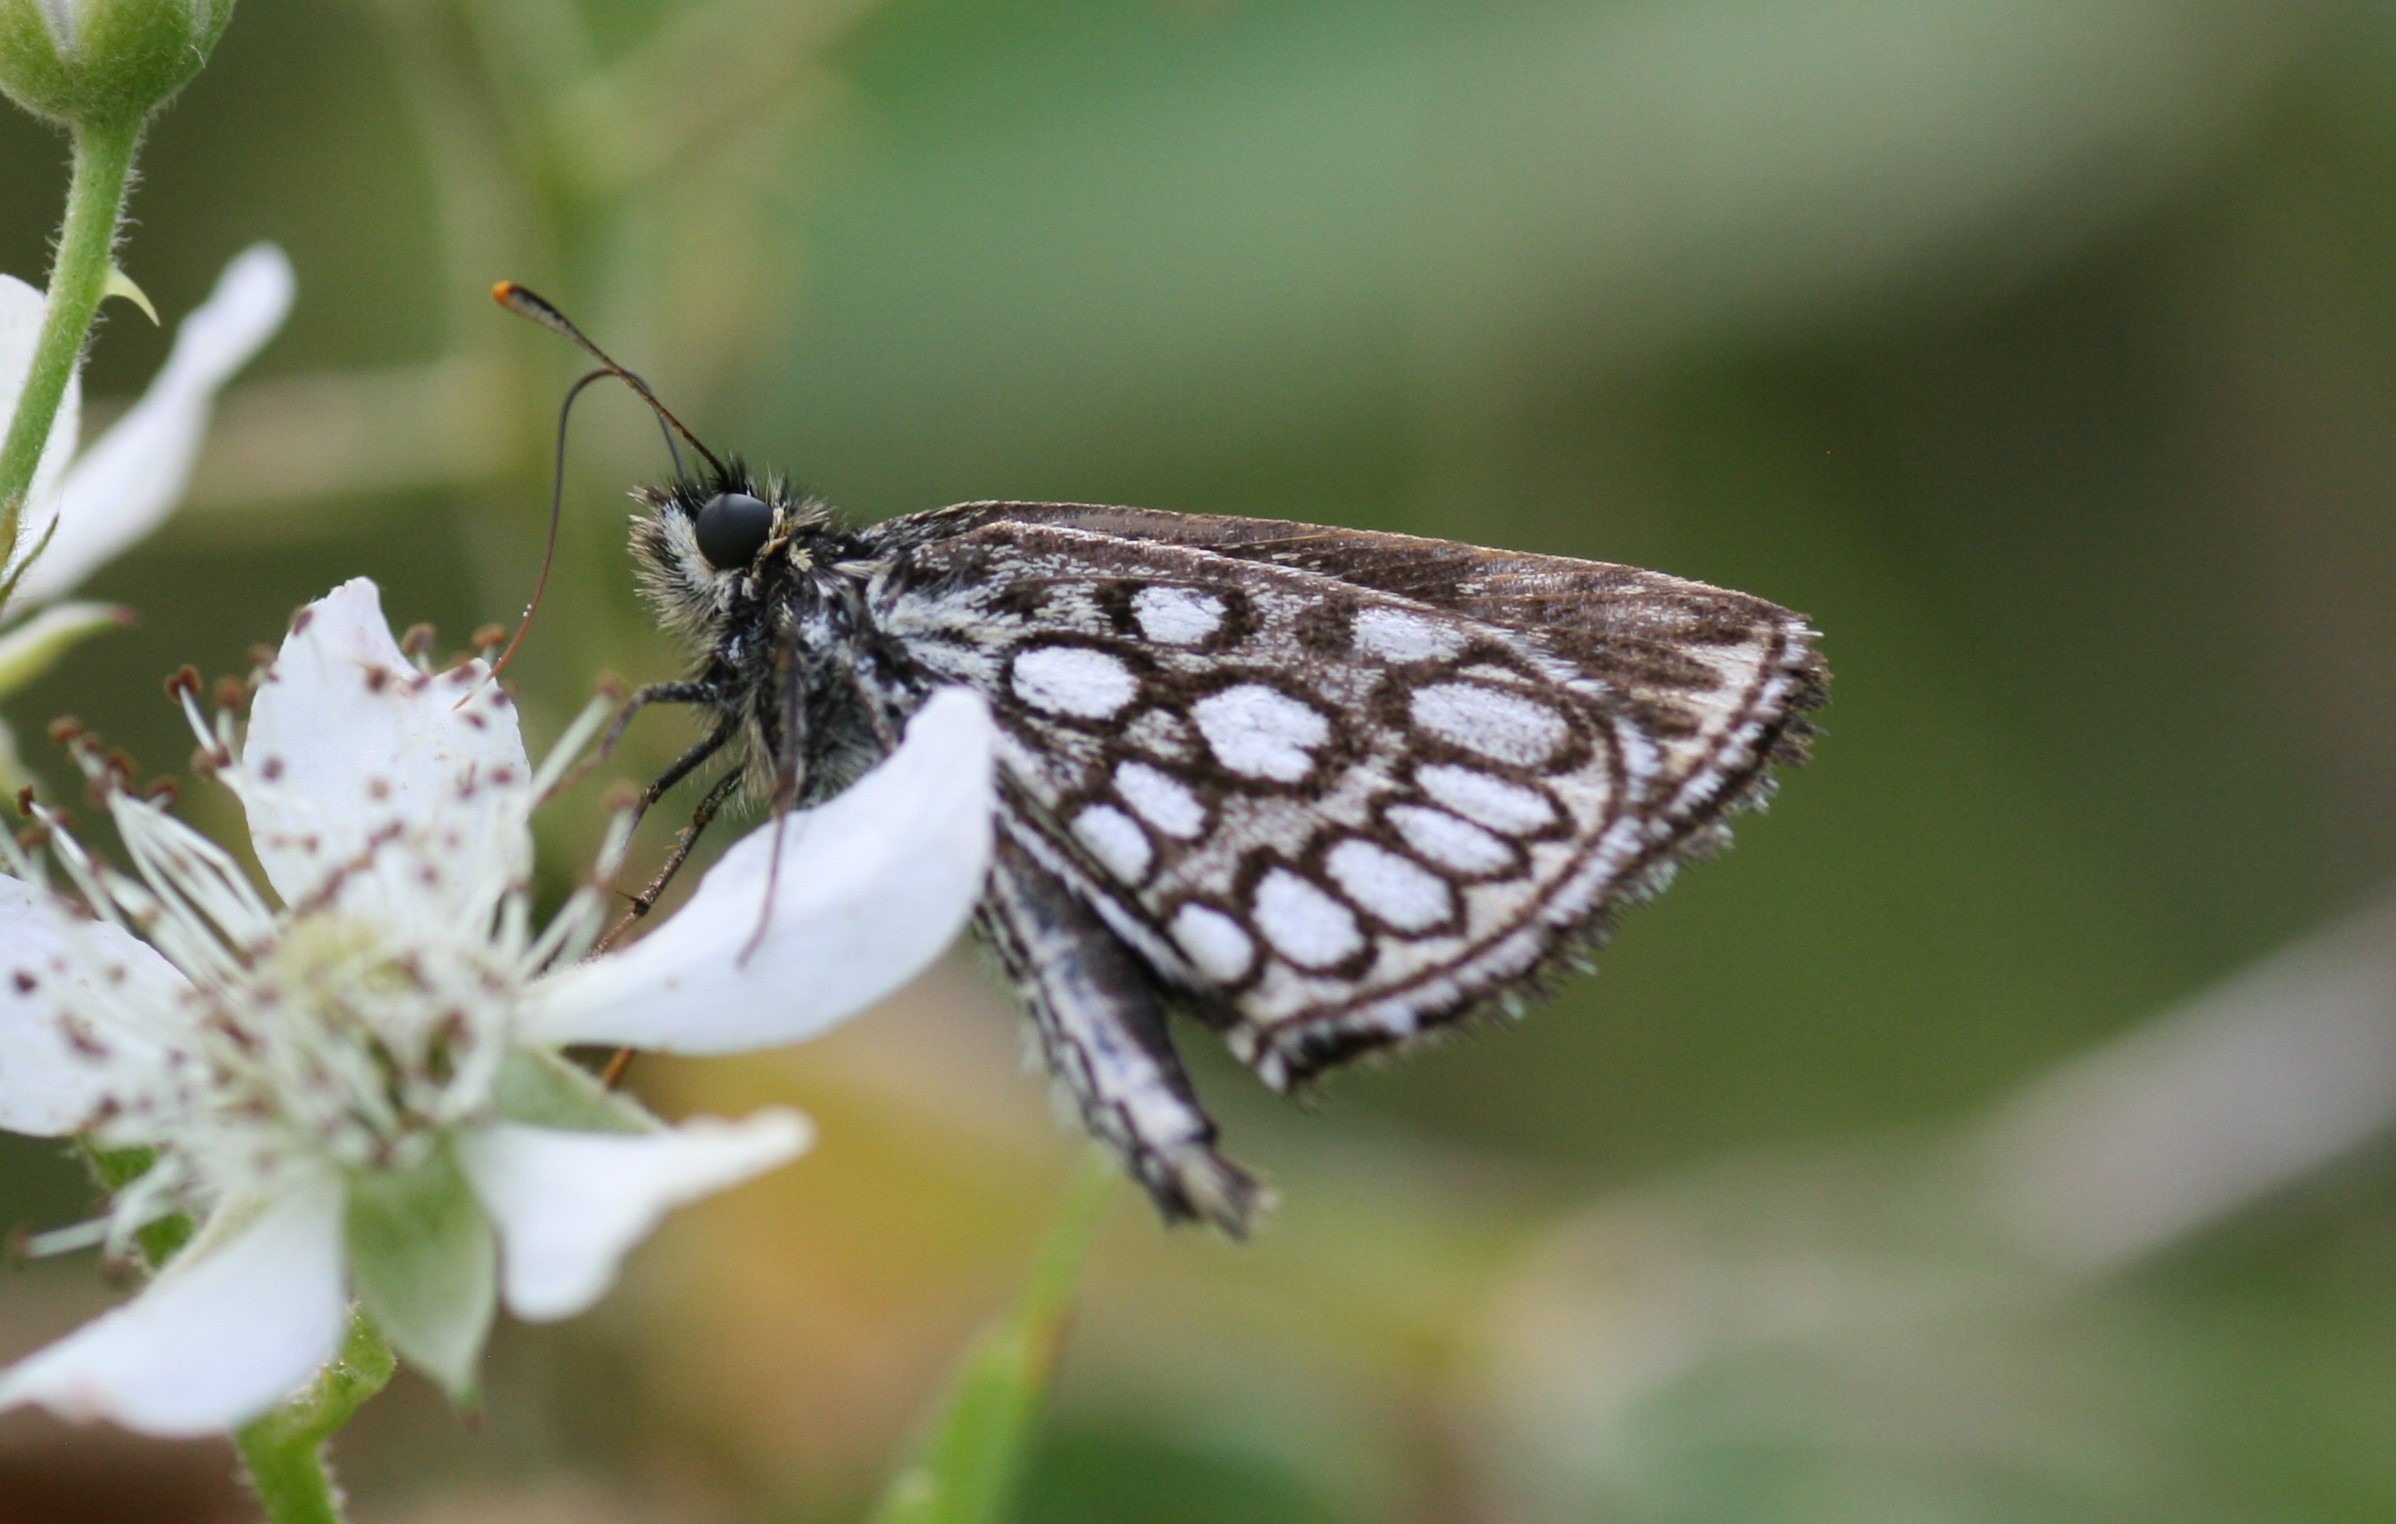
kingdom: Animalia
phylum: Arthropoda
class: Insecta
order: Lepidoptera
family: Hesperiidae
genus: Heteropterus
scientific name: Heteropterus morpheus
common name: Spejlbredpande
